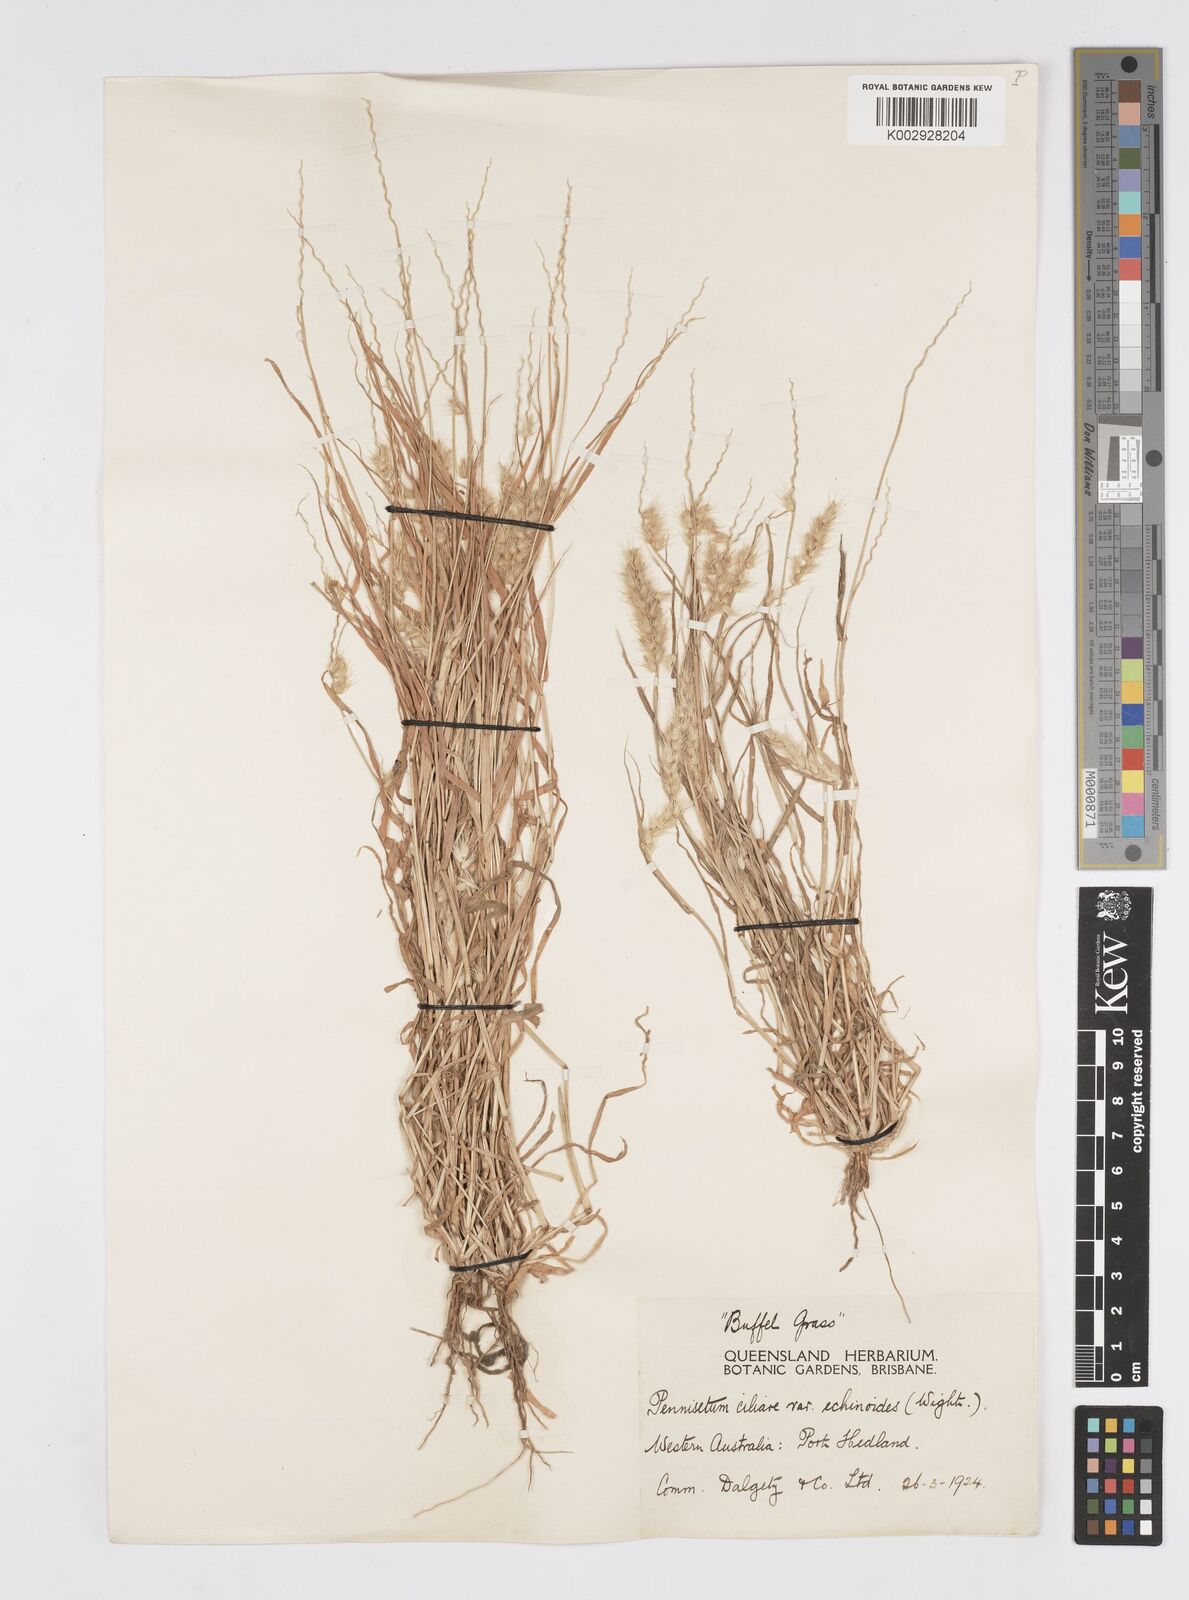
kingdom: Plantae
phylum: Tracheophyta
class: Liliopsida
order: Poales
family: Poaceae
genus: Cenchrus
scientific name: Cenchrus pennisetiformis
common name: Cloncurry
